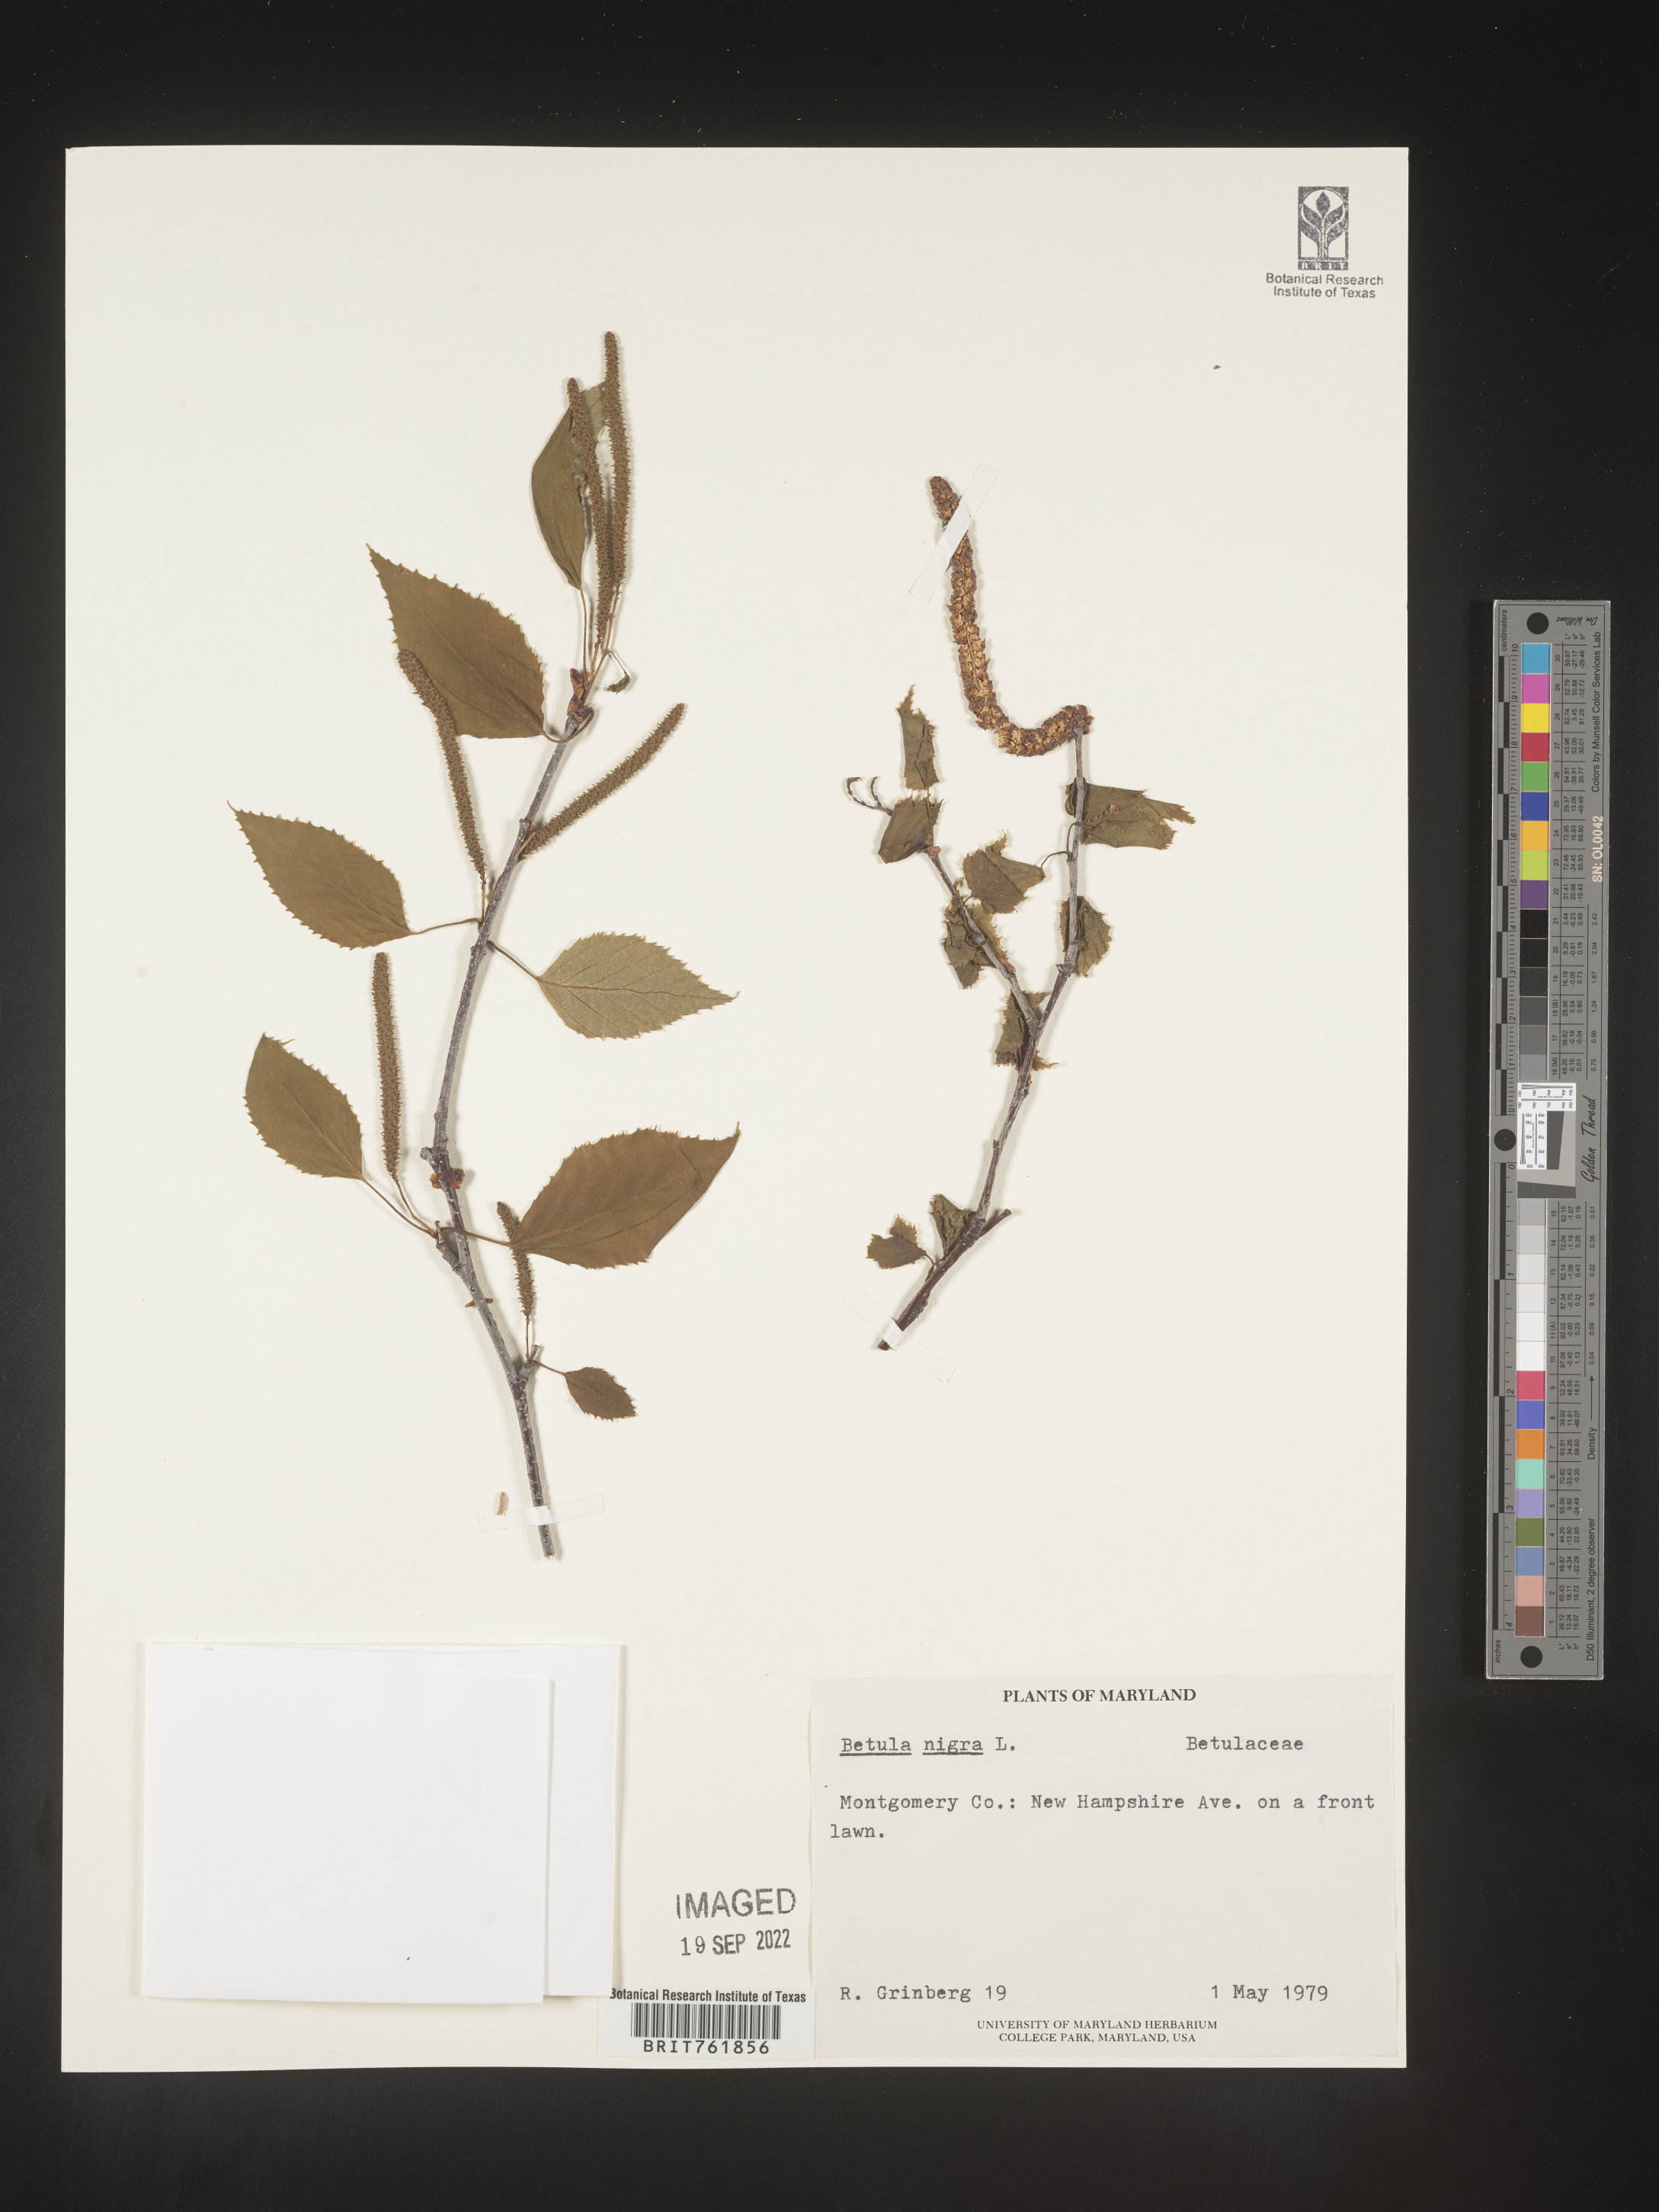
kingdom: Plantae
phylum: Tracheophyta
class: Magnoliopsida
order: Fagales
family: Betulaceae
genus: Betula
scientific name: Betula nigra
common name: Black birch
